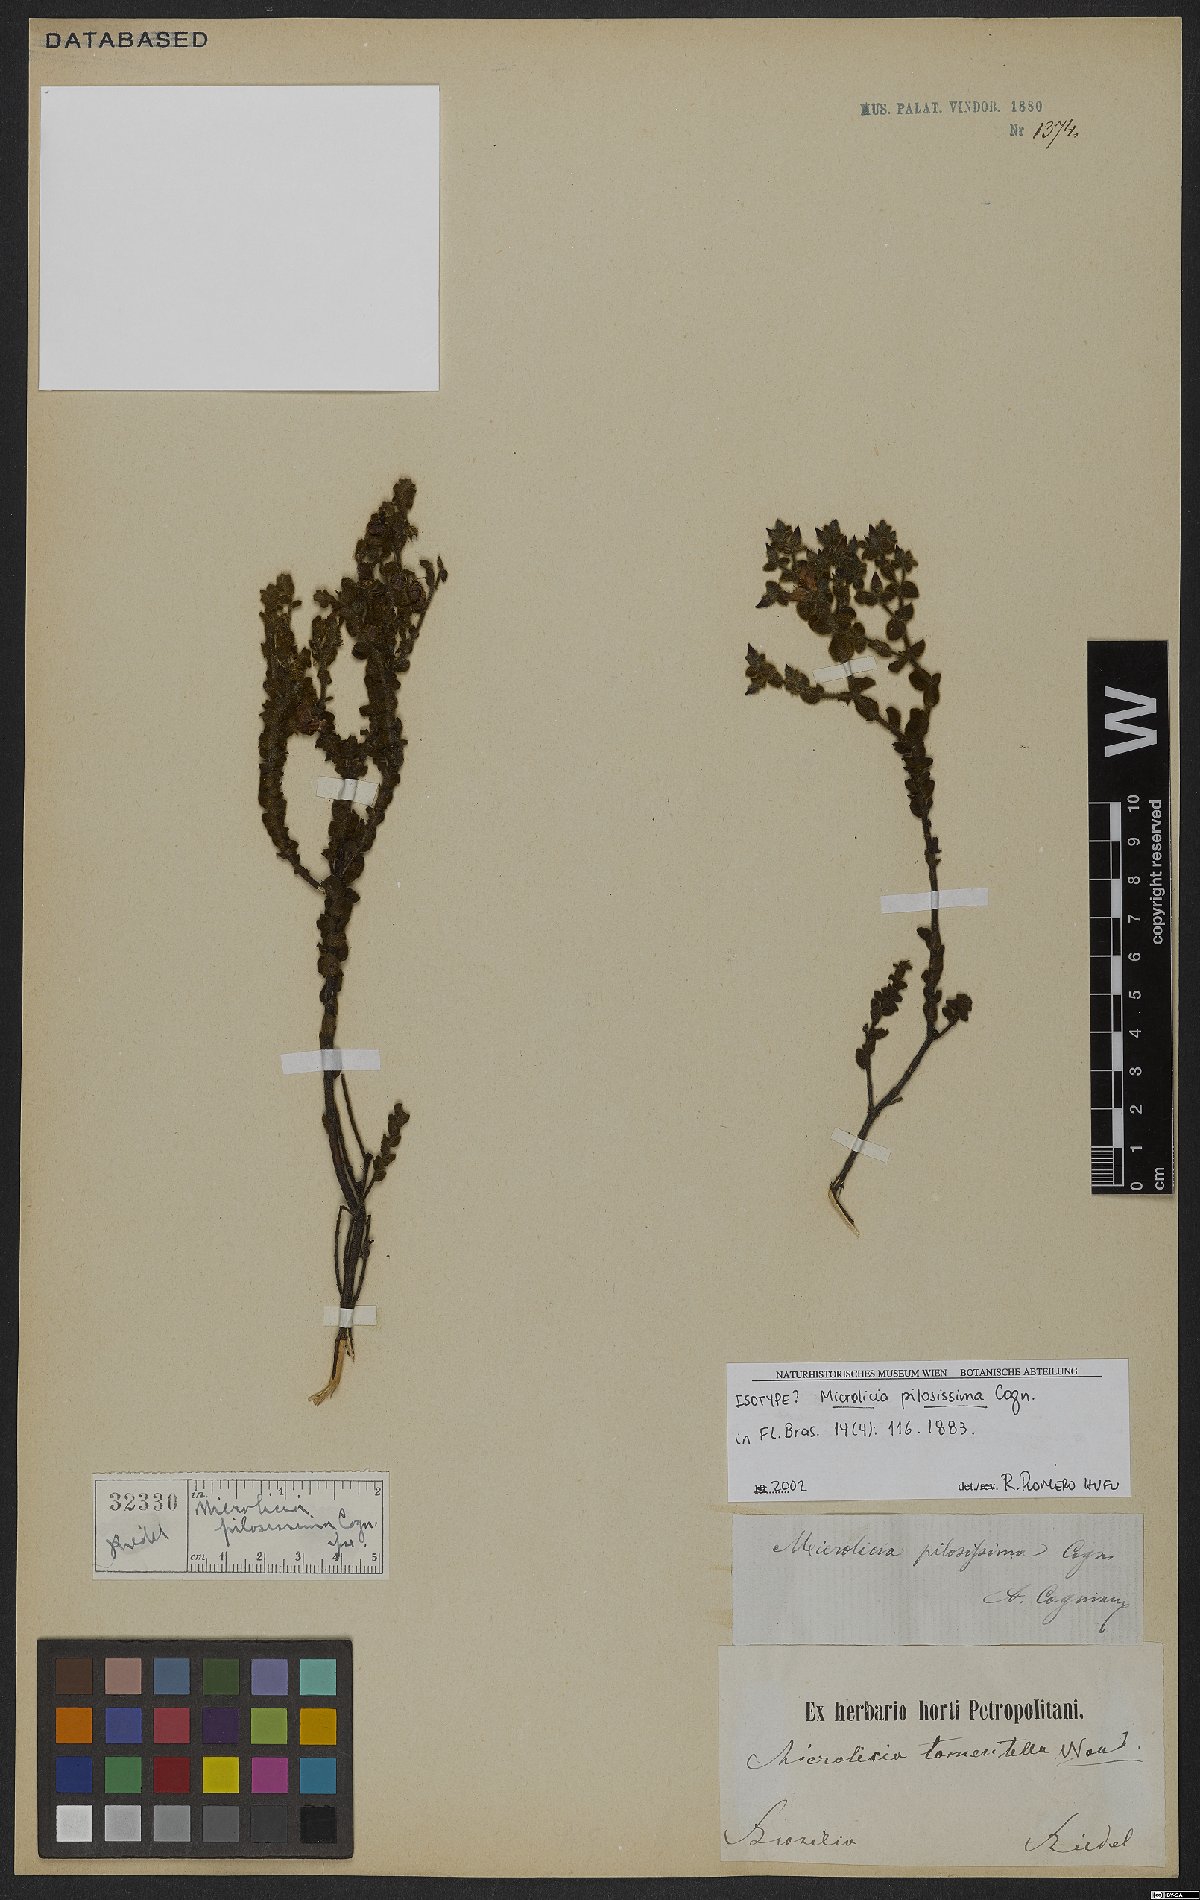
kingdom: Plantae
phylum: Tracheophyta
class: Magnoliopsida
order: Myrtales
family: Melastomataceae
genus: Microlicia
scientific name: Microlicia pilosissima
